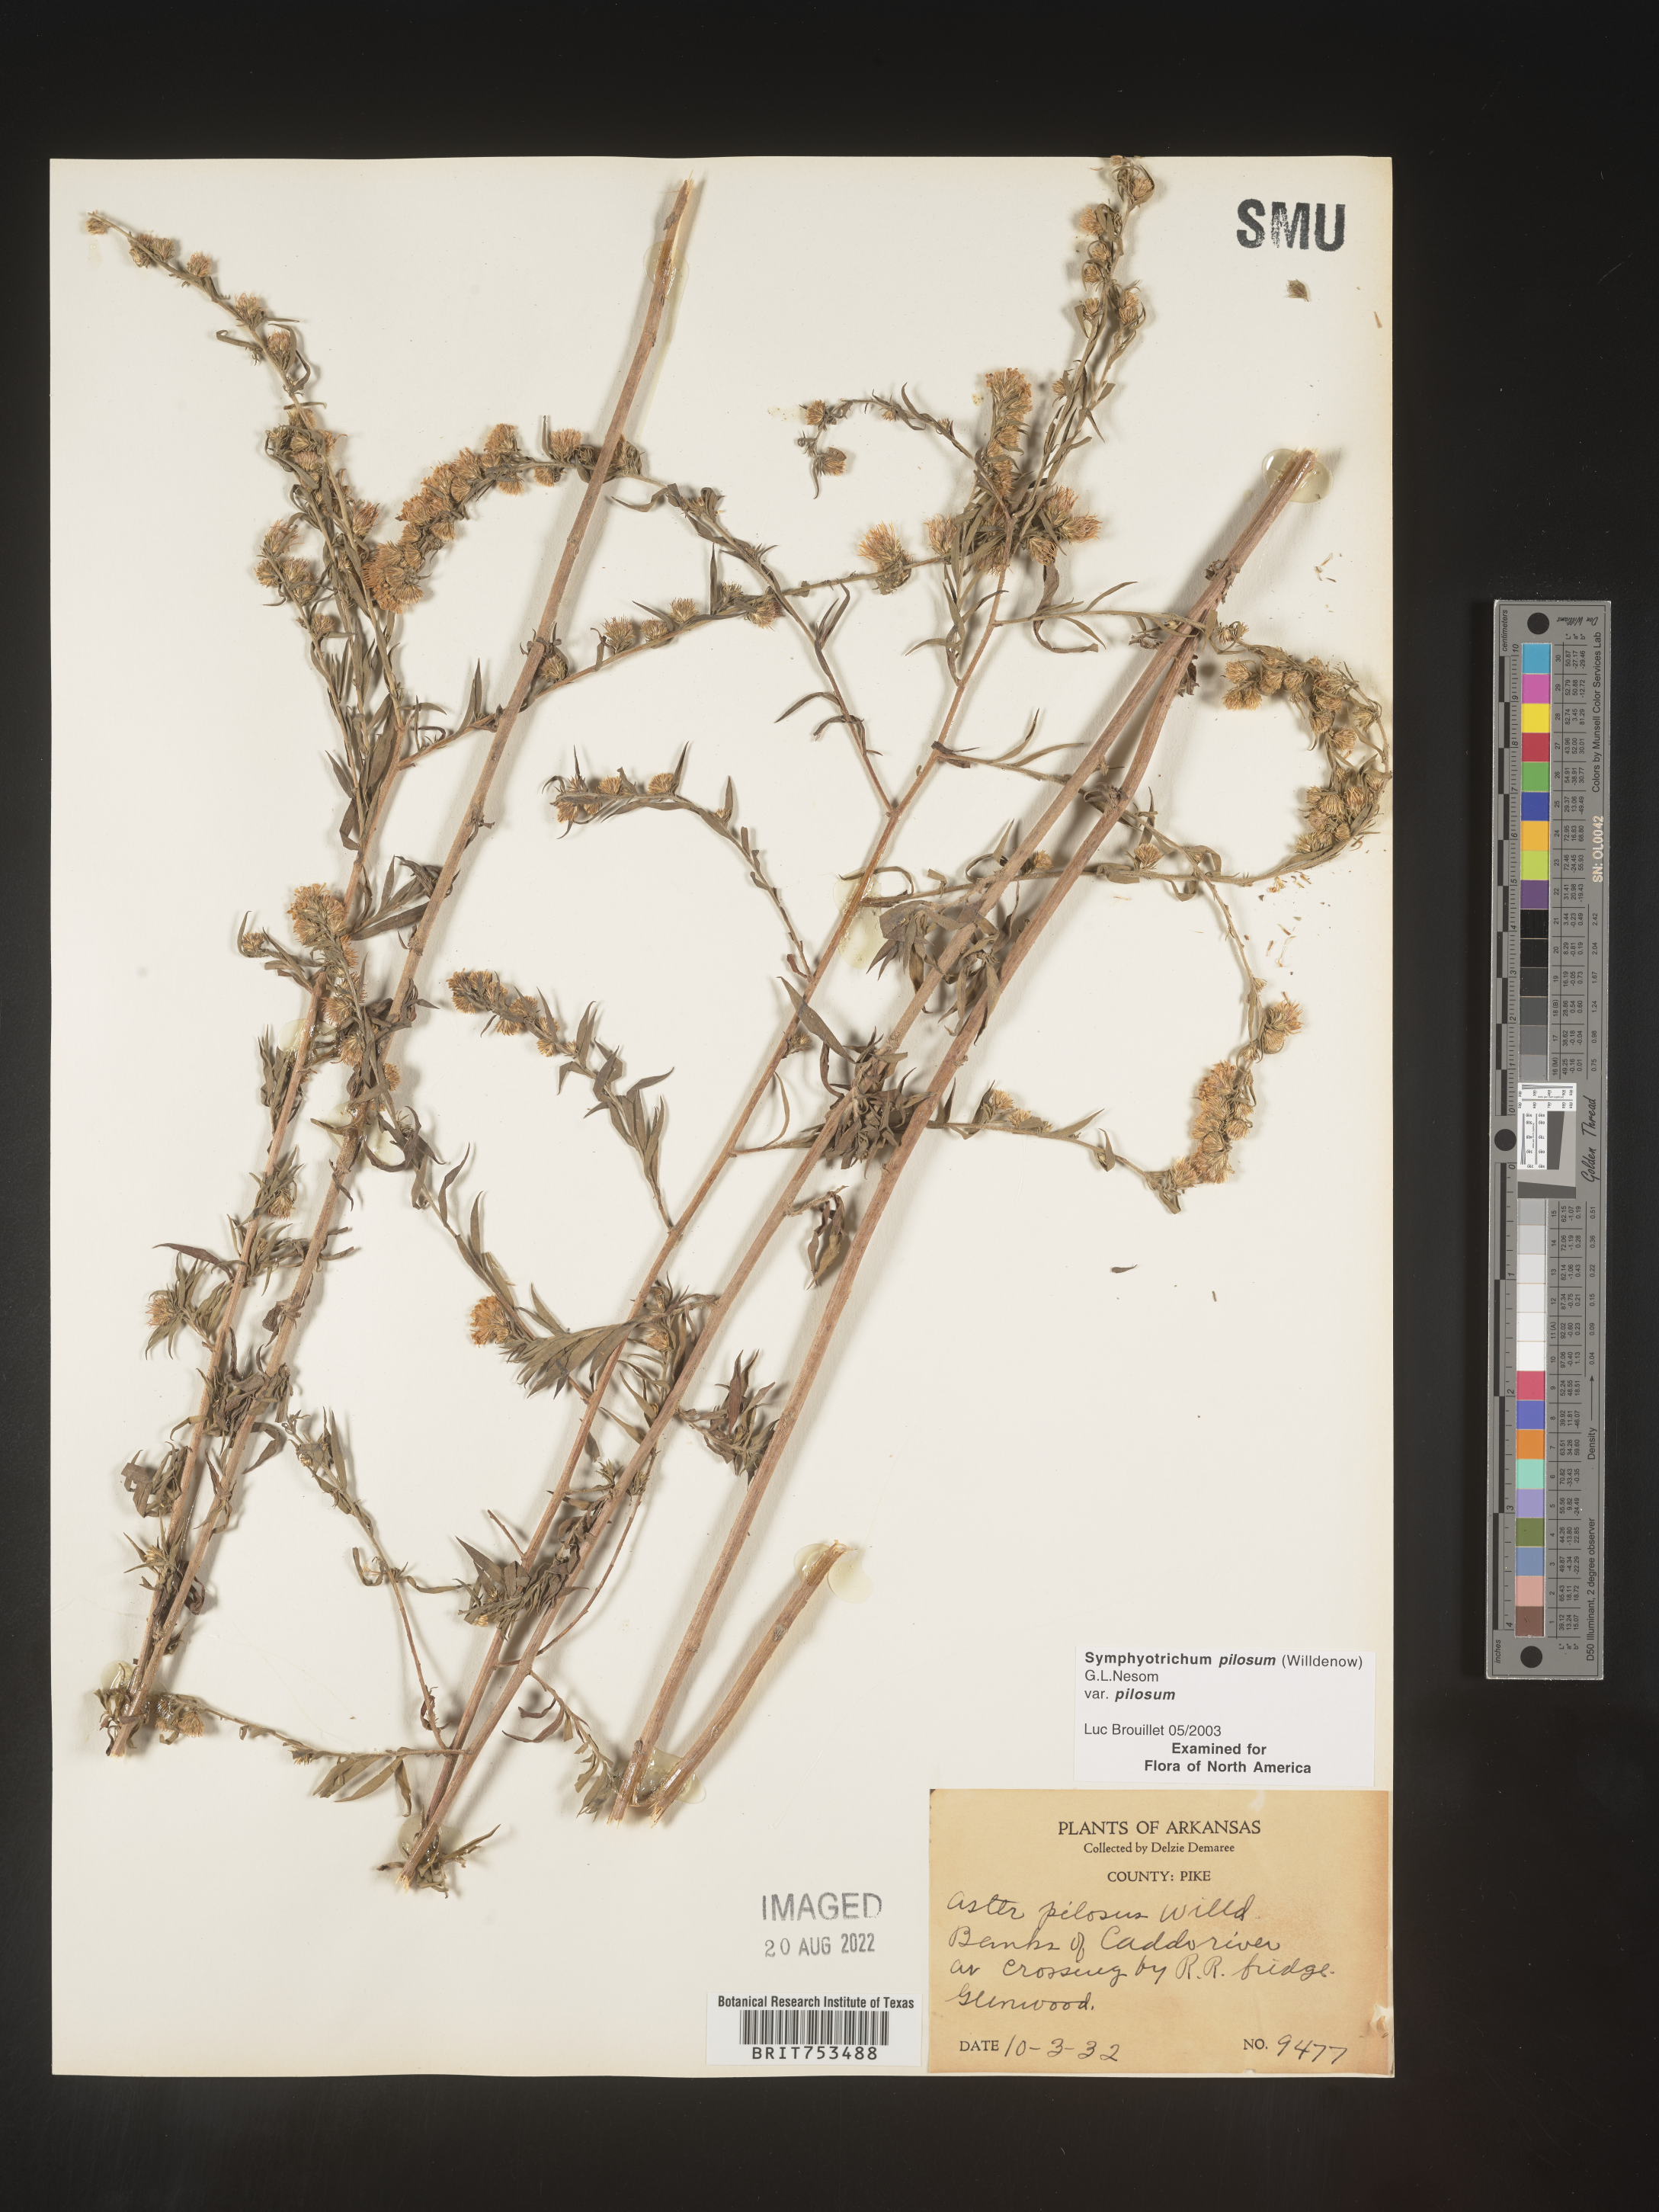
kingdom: Plantae
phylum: Tracheophyta
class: Magnoliopsida
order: Asterales
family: Asteraceae
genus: Symphyotrichum
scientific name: Symphyotrichum pilosum
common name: Awl aster
